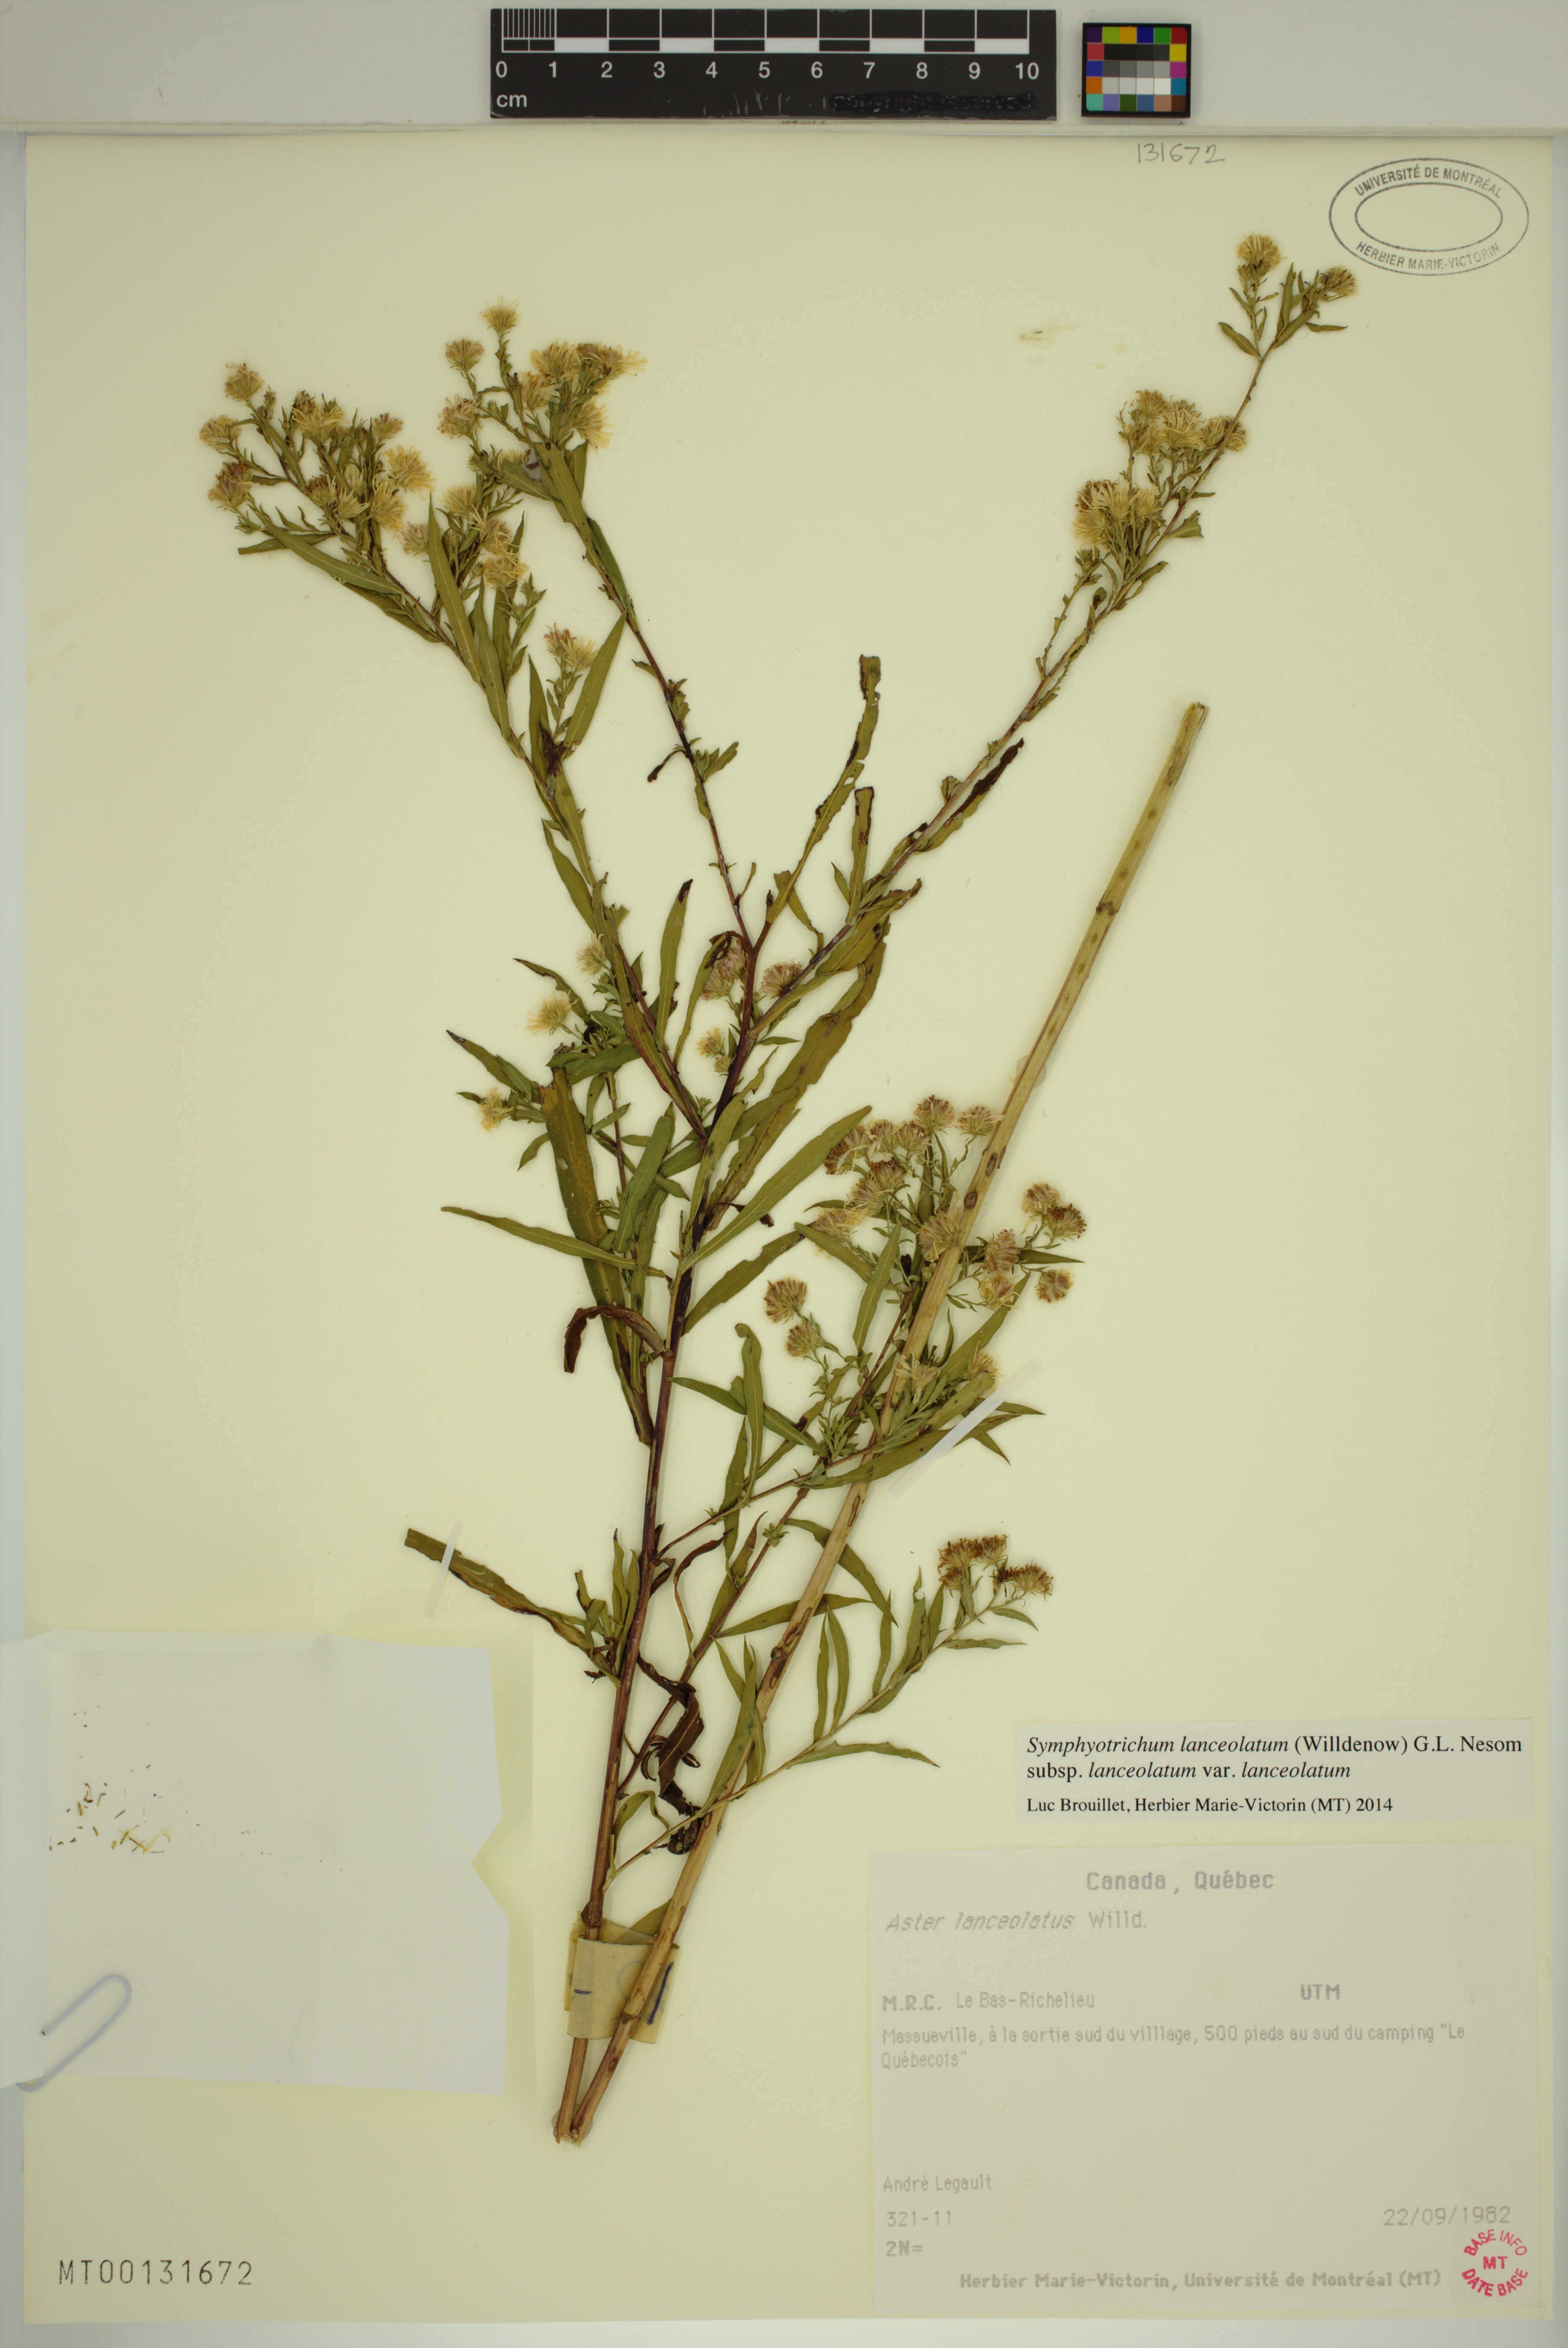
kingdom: Plantae
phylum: Tracheophyta
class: Magnoliopsida
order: Asterales
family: Asteraceae
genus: Symphyotrichum
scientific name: Symphyotrichum lanceolatum
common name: Panicled aster
